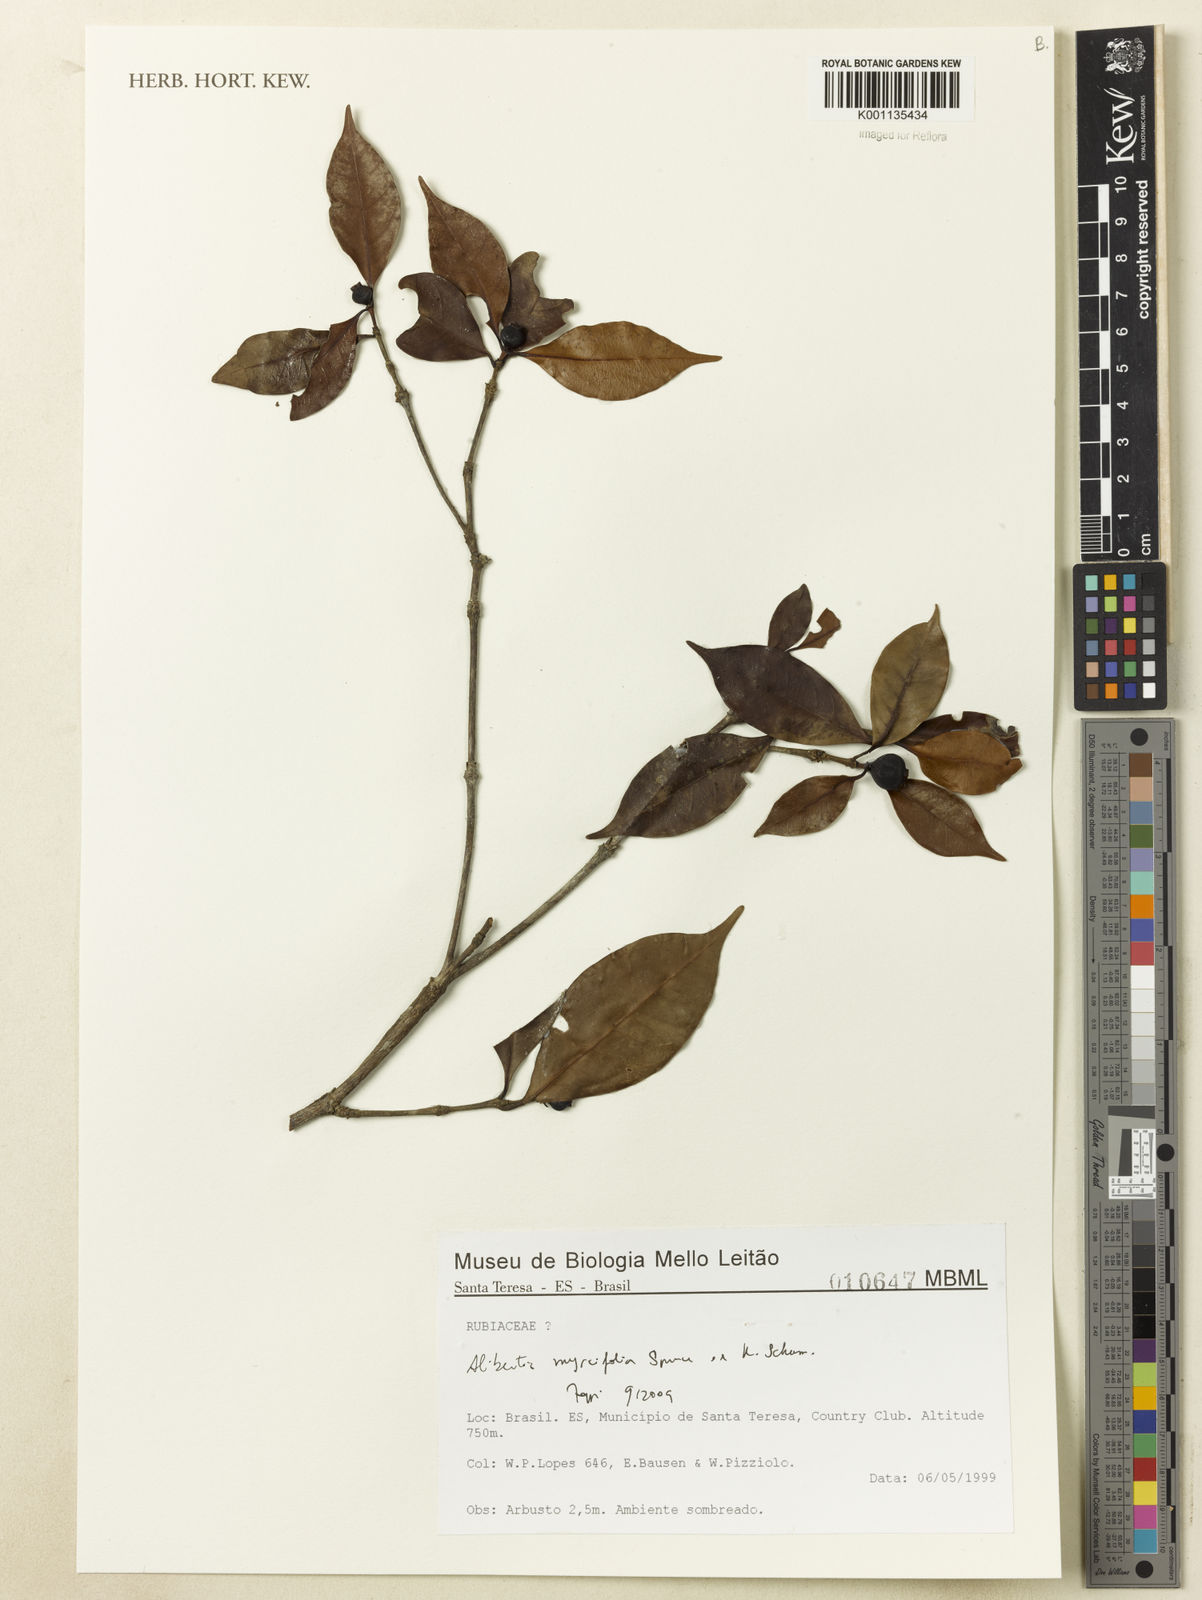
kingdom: Plantae
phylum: Tracheophyta
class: Magnoliopsida
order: Gentianales
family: Rubiaceae
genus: Cordiera
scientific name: Cordiera myrciifolia
